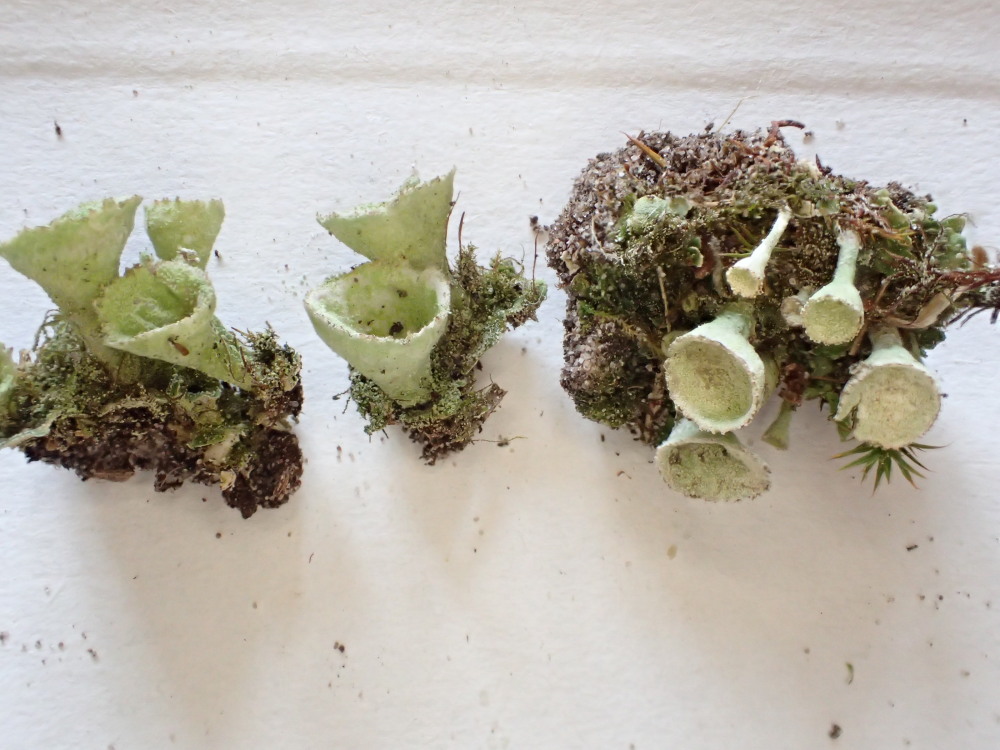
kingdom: Fungi
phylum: Ascomycota
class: Lecanoromycetes
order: Lecanorales
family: Cladoniaceae
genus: Cladonia
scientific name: Cladonia humilis
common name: lav bægerlav
